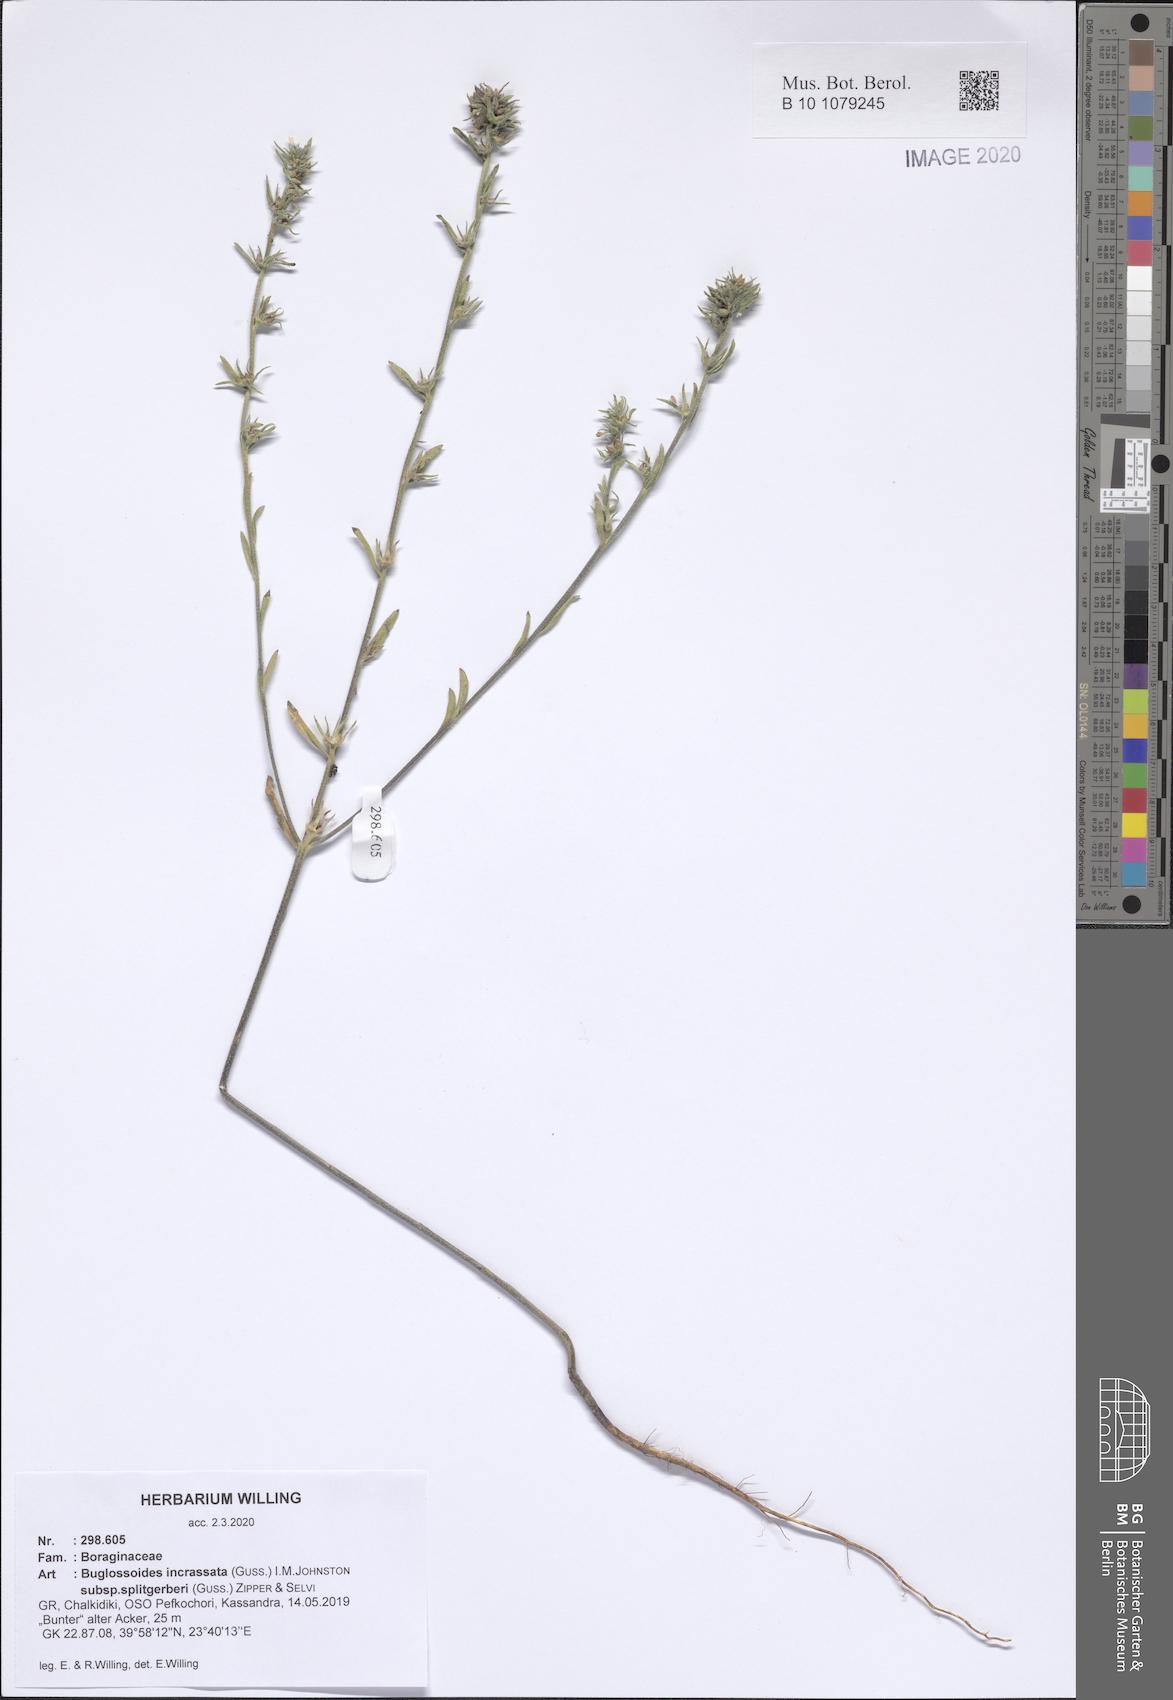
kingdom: Plantae
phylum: Tracheophyta
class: Magnoliopsida
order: Boraginales
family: Boraginaceae
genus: Buglossoides
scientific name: Buglossoides incrassata
